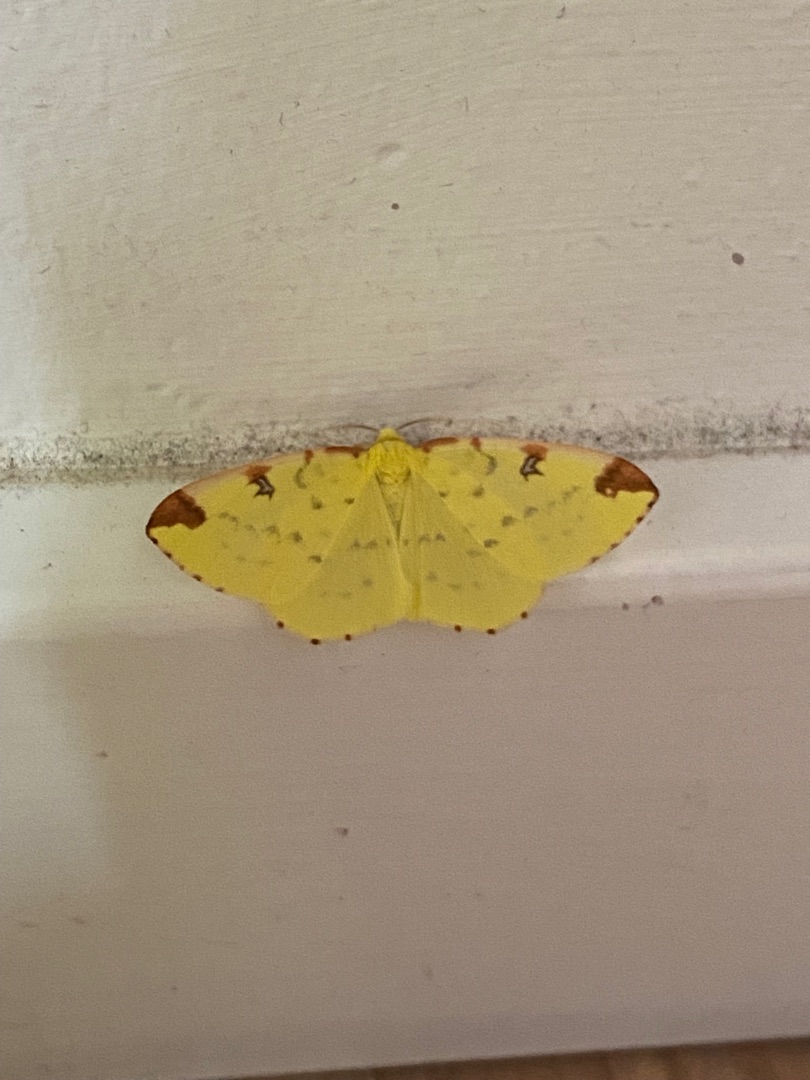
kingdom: Animalia
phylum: Arthropoda
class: Insecta
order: Lepidoptera
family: Geometridae
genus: Opisthograptis
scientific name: Opisthograptis luteolata
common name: Citronmåler
